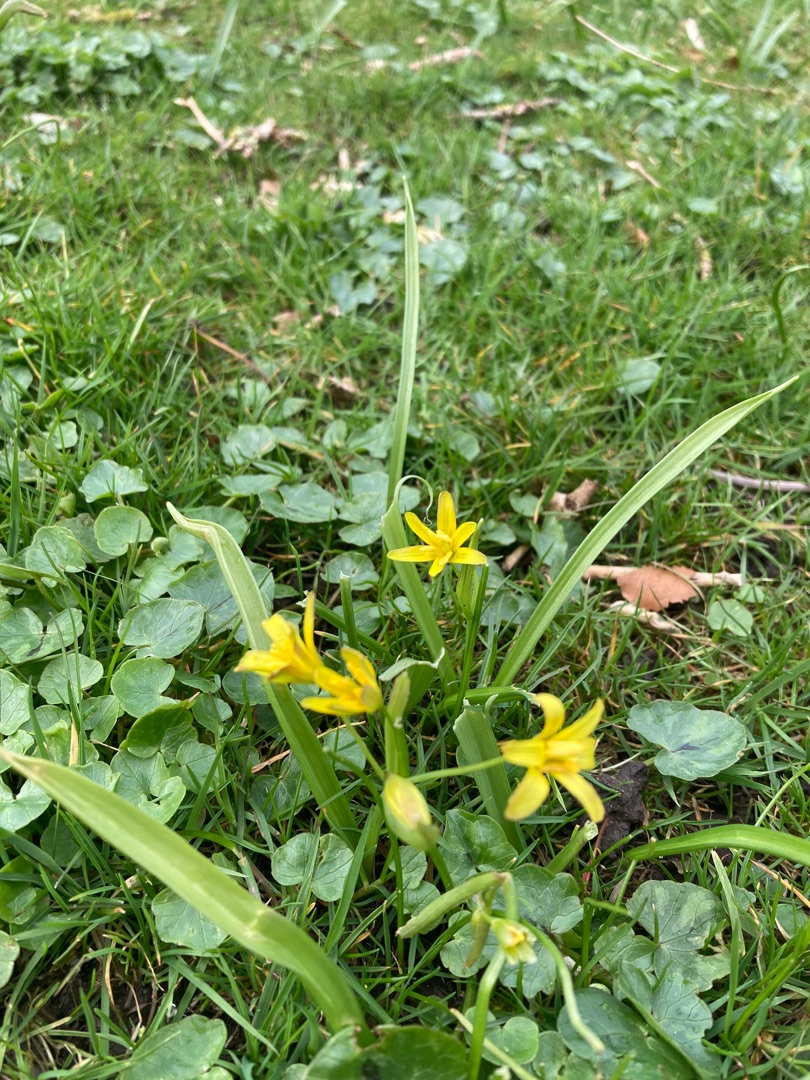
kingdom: Plantae
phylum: Tracheophyta
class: Liliopsida
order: Liliales
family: Liliaceae
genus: Gagea
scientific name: Gagea lutea
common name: Almindelig guldstjerne
